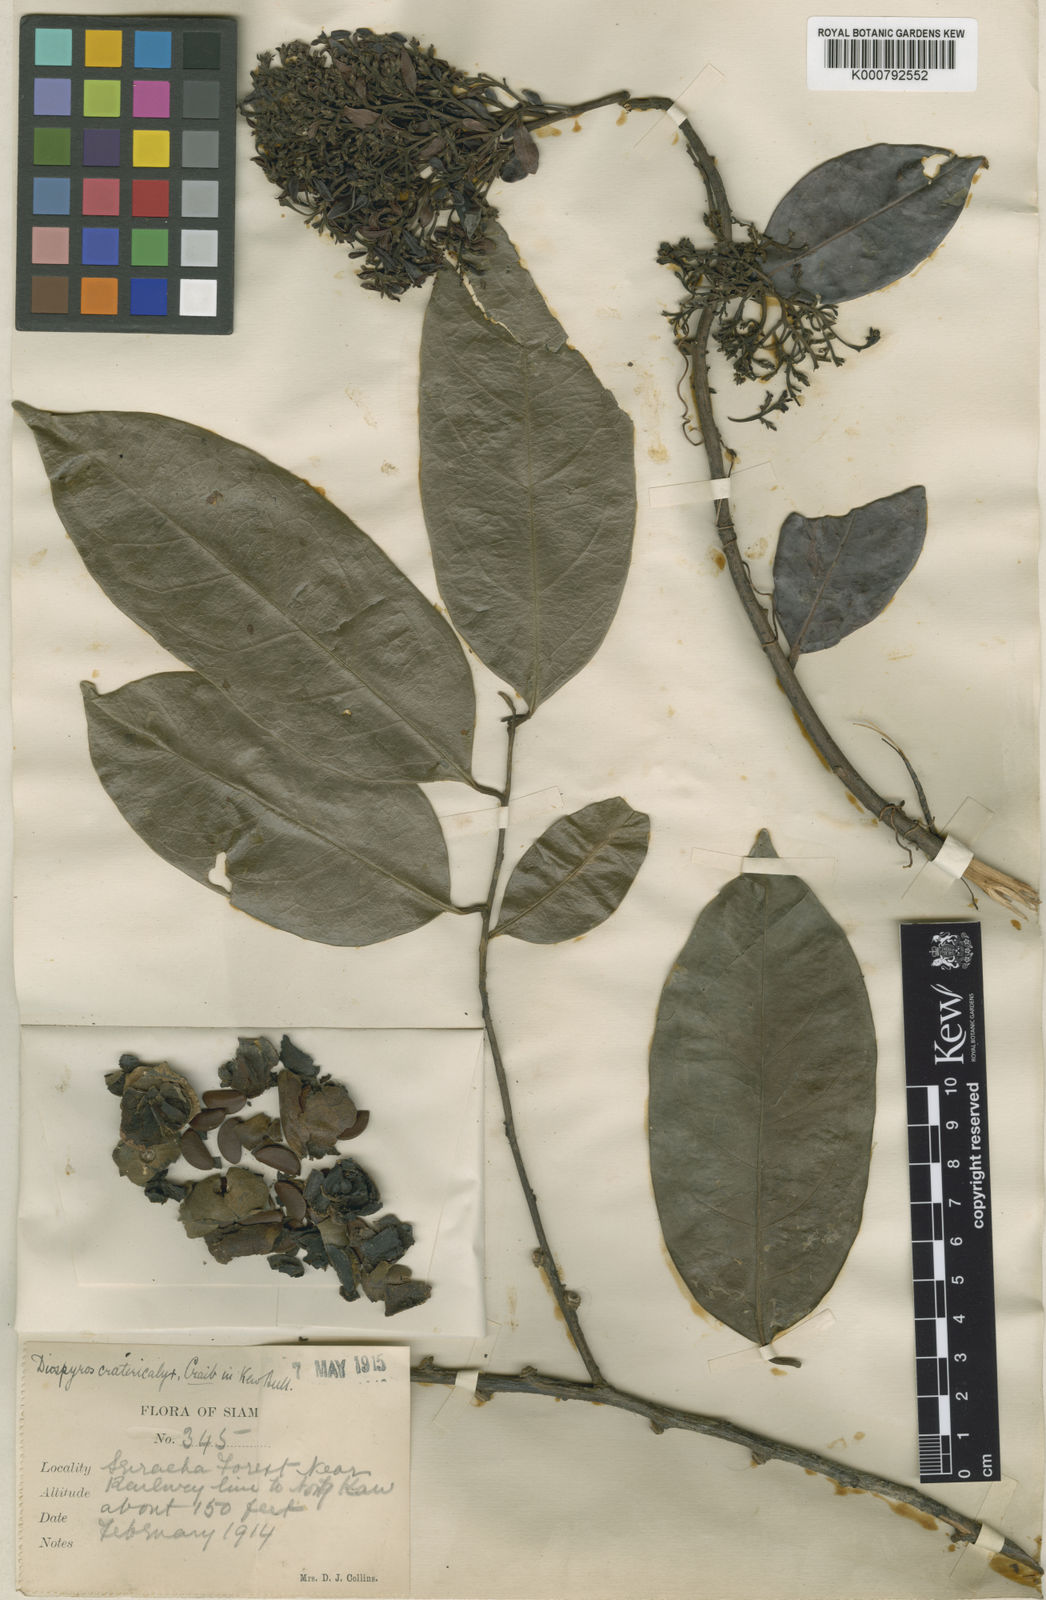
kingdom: Plantae
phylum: Tracheophyta
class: Magnoliopsida
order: Ericales
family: Ebenaceae
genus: Diospyros
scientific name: Diospyros virginiana
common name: Persimmon
